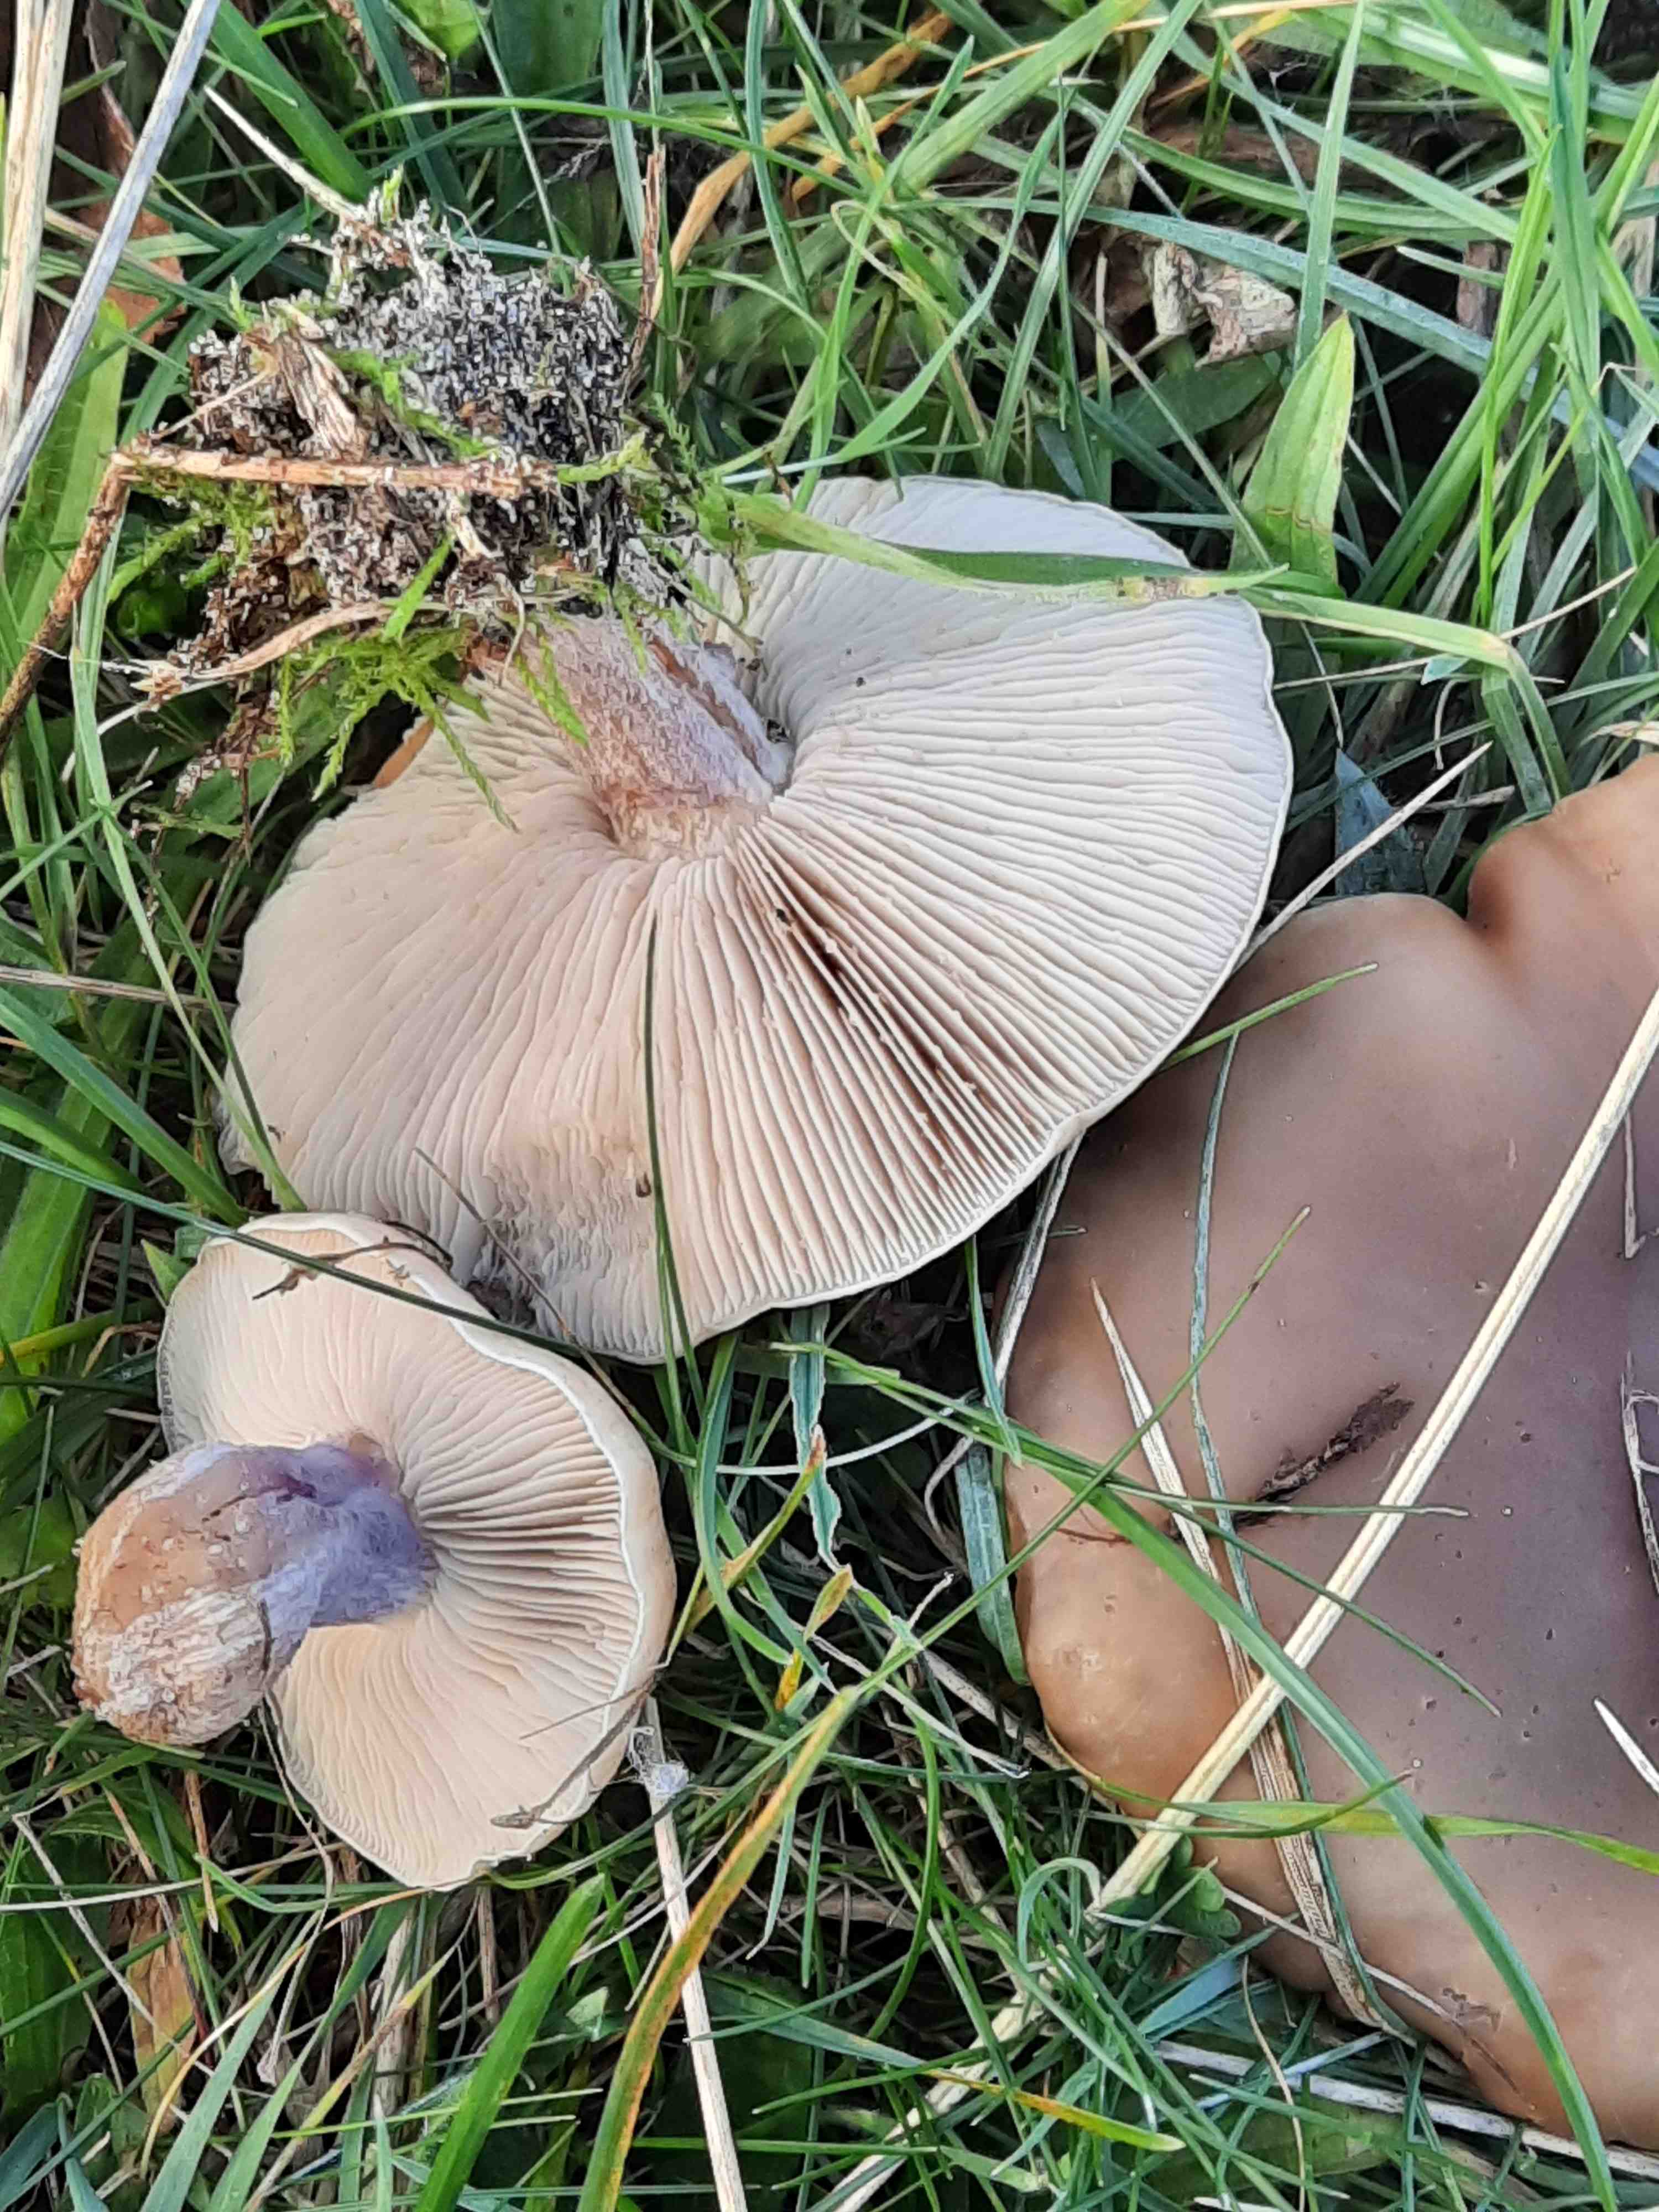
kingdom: Fungi
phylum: Basidiomycota
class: Agaricomycetes
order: Agaricales
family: Tricholomataceae
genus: Lepista
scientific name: Lepista personata
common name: bleg hekseringshat
